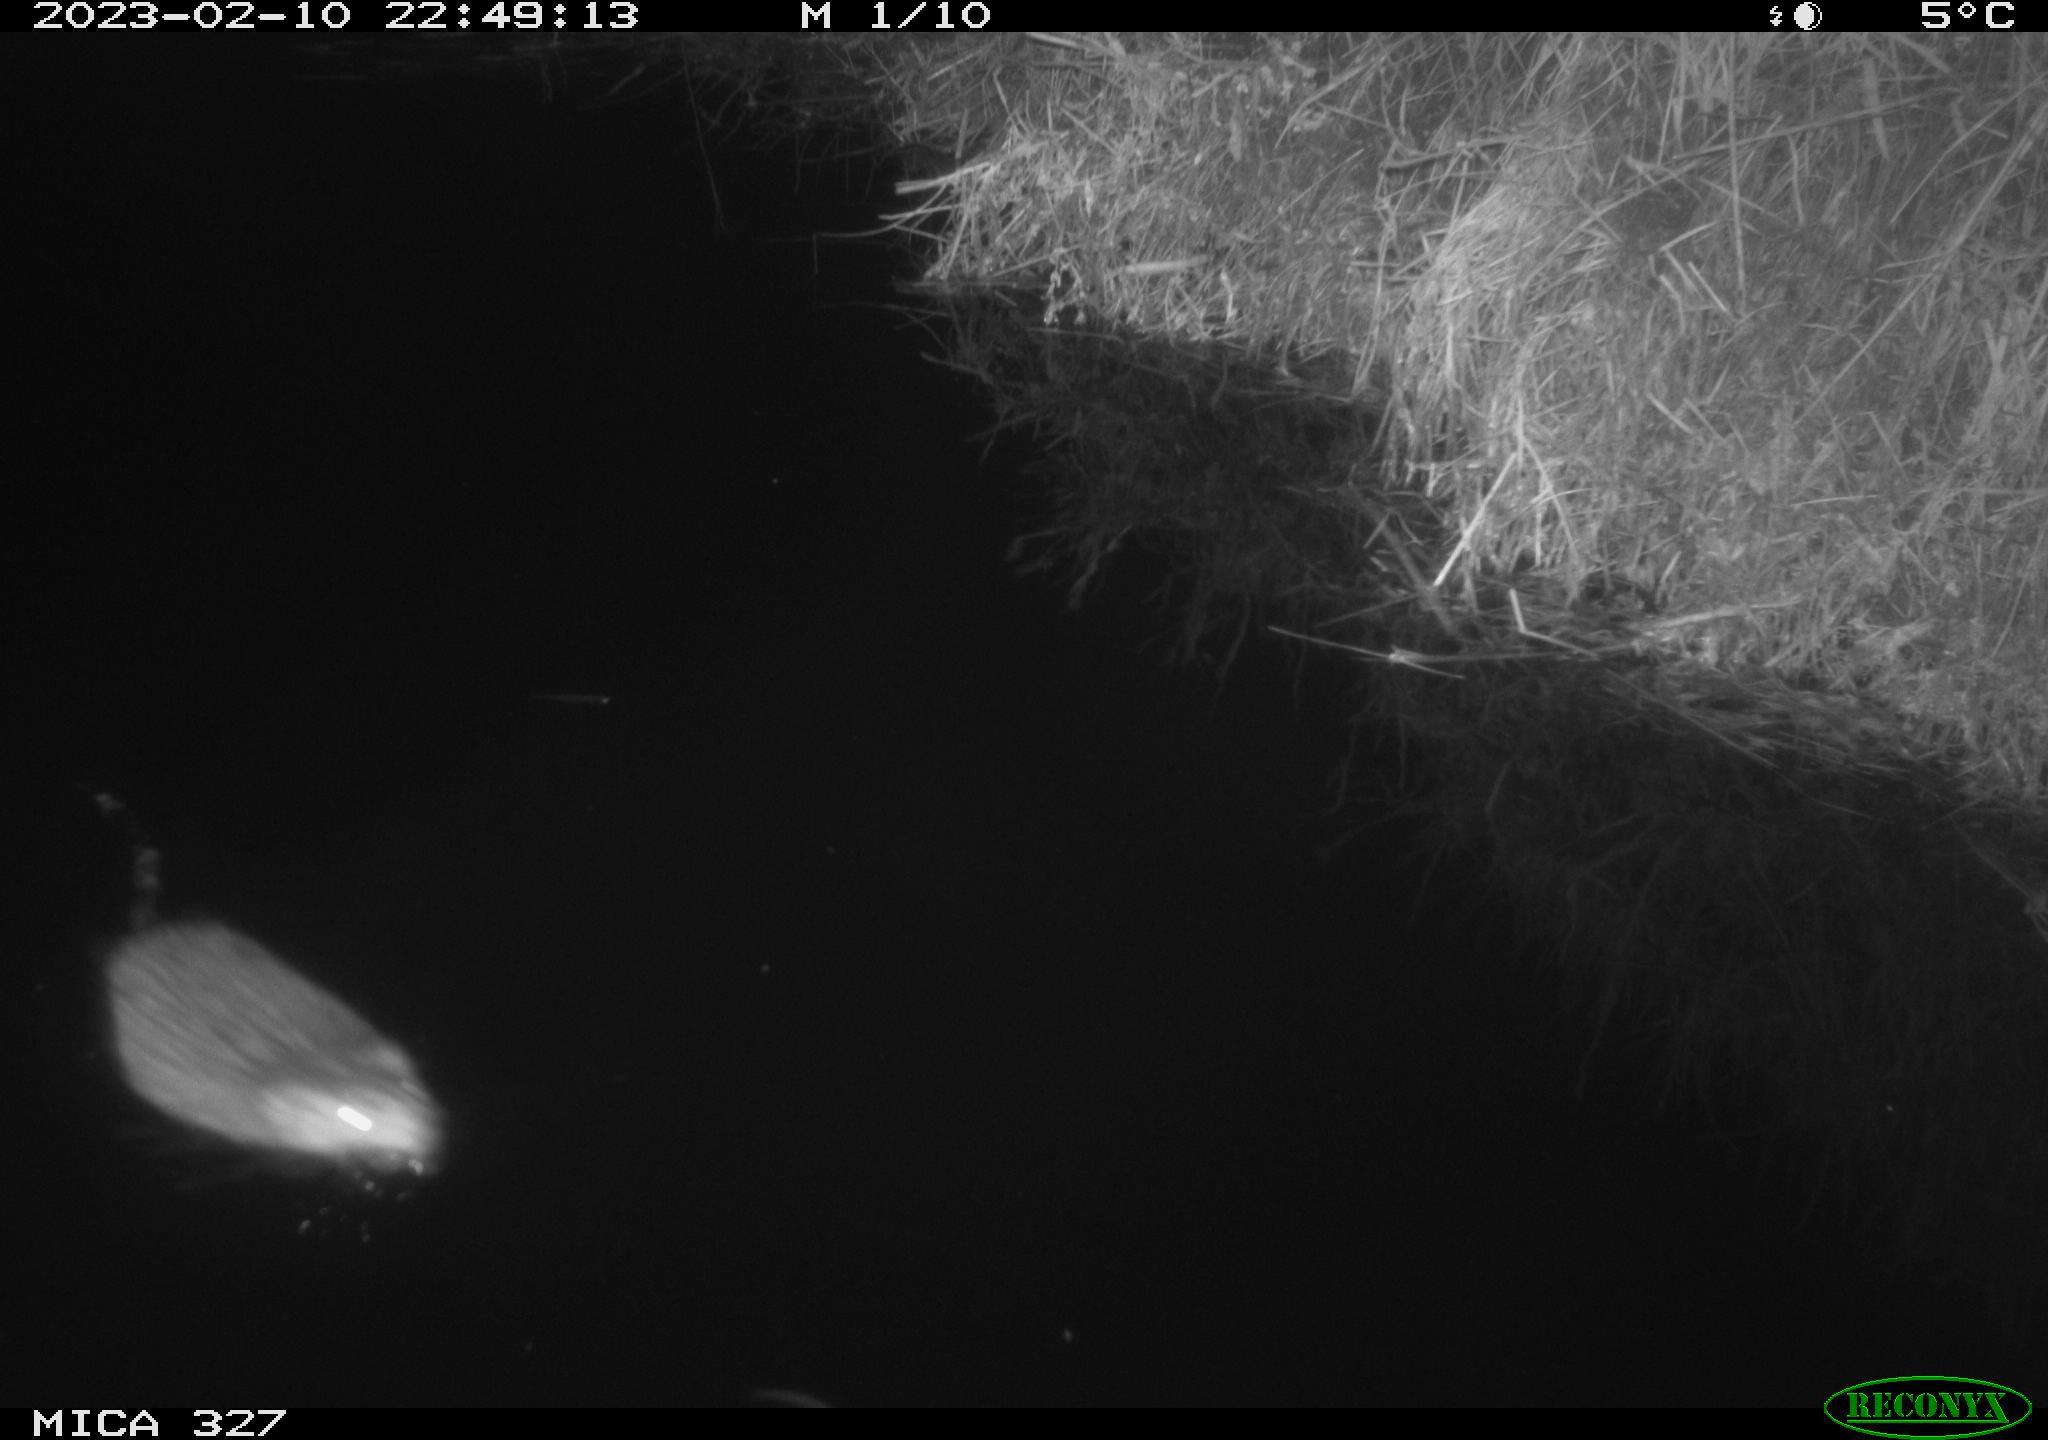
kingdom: Animalia
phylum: Chordata
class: Mammalia
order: Rodentia
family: Cricetidae
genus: Ondatra
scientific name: Ondatra zibethicus
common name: Muskrat
